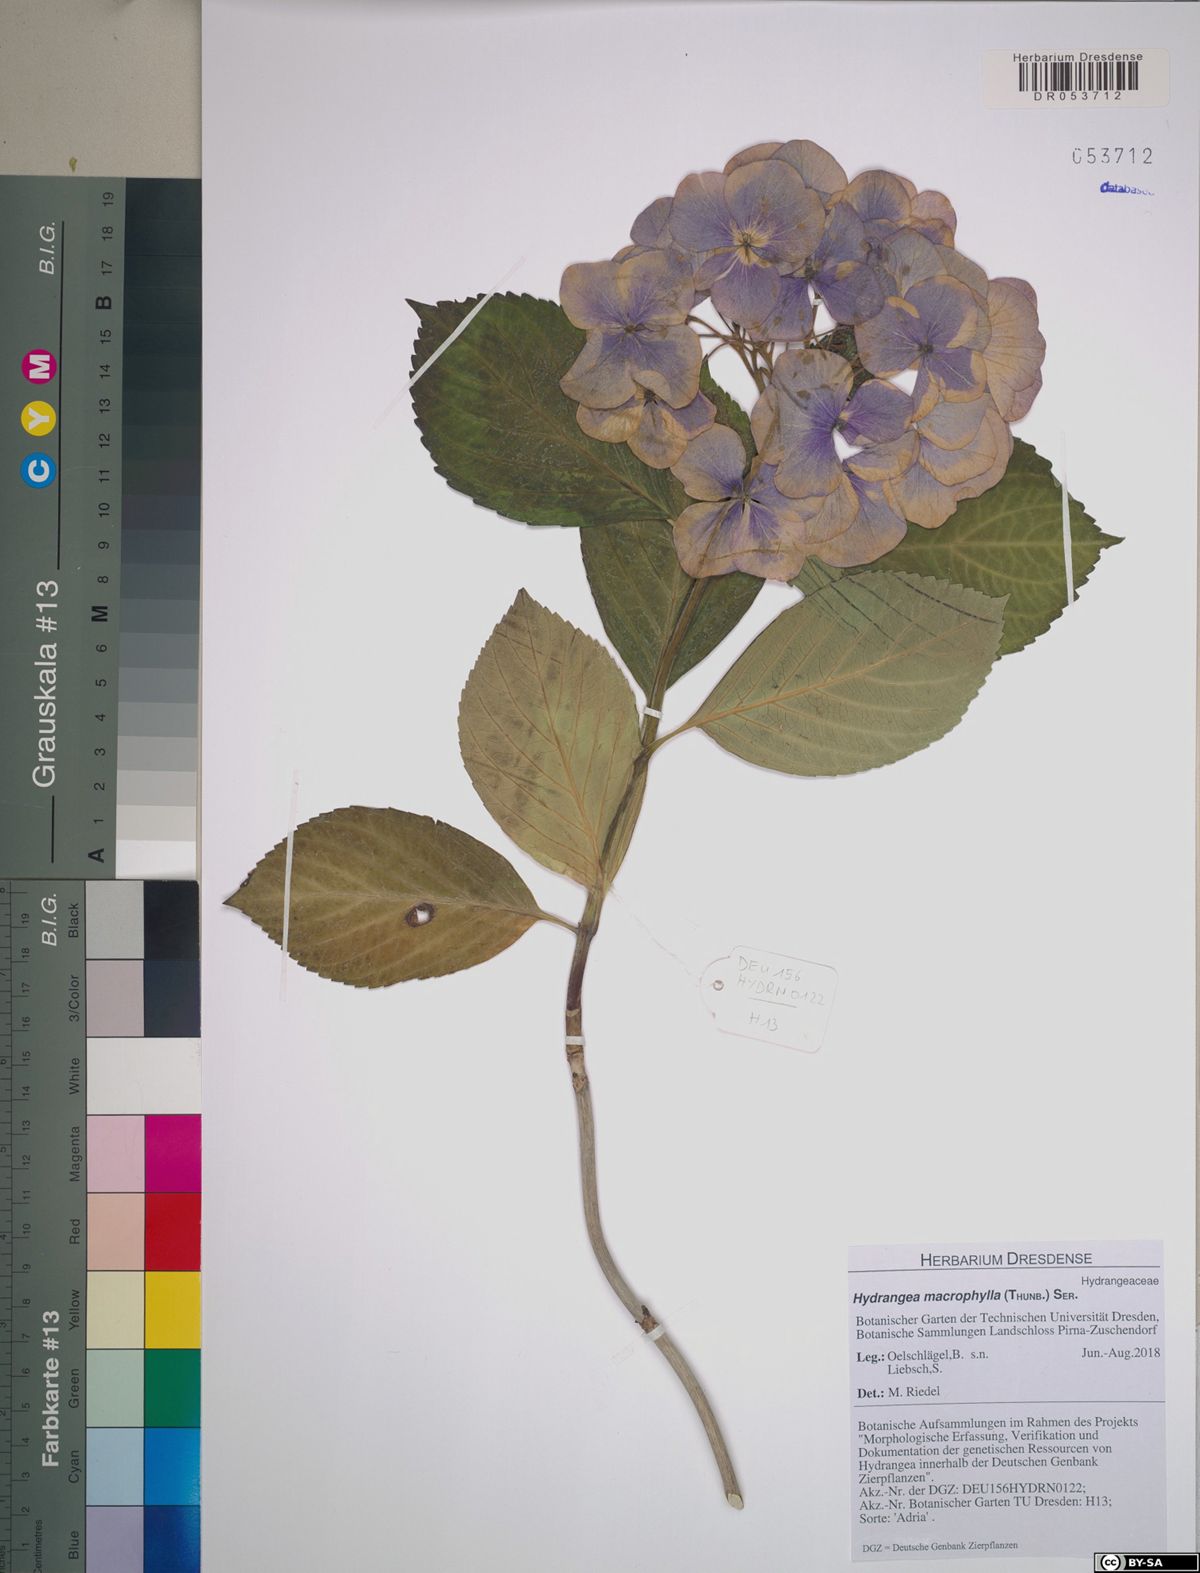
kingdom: Plantae
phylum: Tracheophyta
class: Magnoliopsida
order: Cornales
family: Hydrangeaceae
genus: Hydrangea
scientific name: Hydrangea macrophylla
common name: Hydrangea
